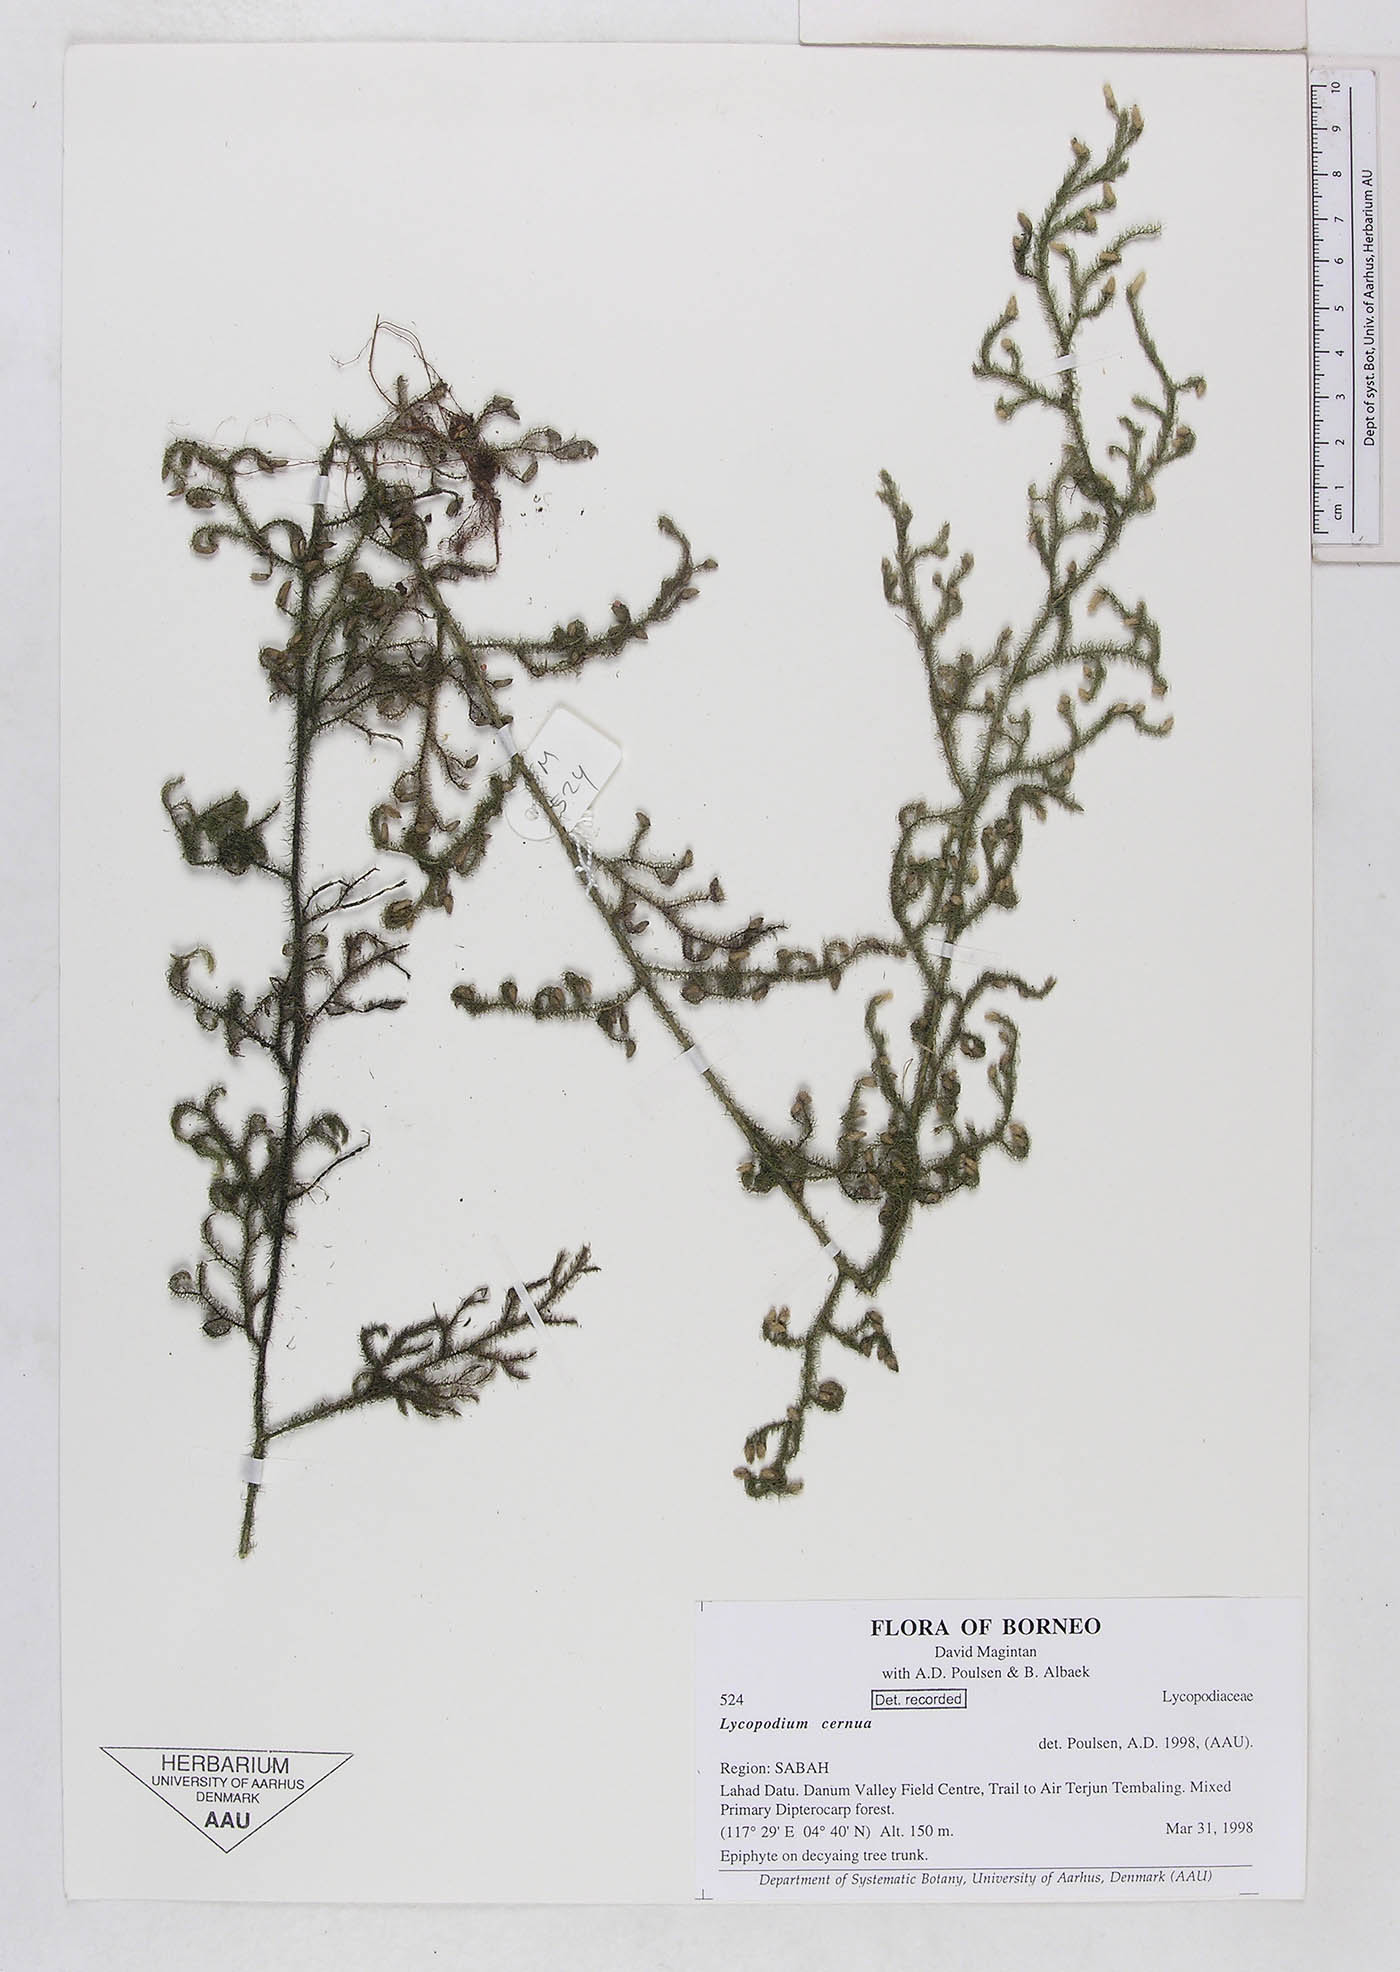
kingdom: Plantae
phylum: Tracheophyta
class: Lycopodiopsida
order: Lycopodiales
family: Lycopodiaceae
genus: Palhinhaea
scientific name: Palhinhaea cernua
